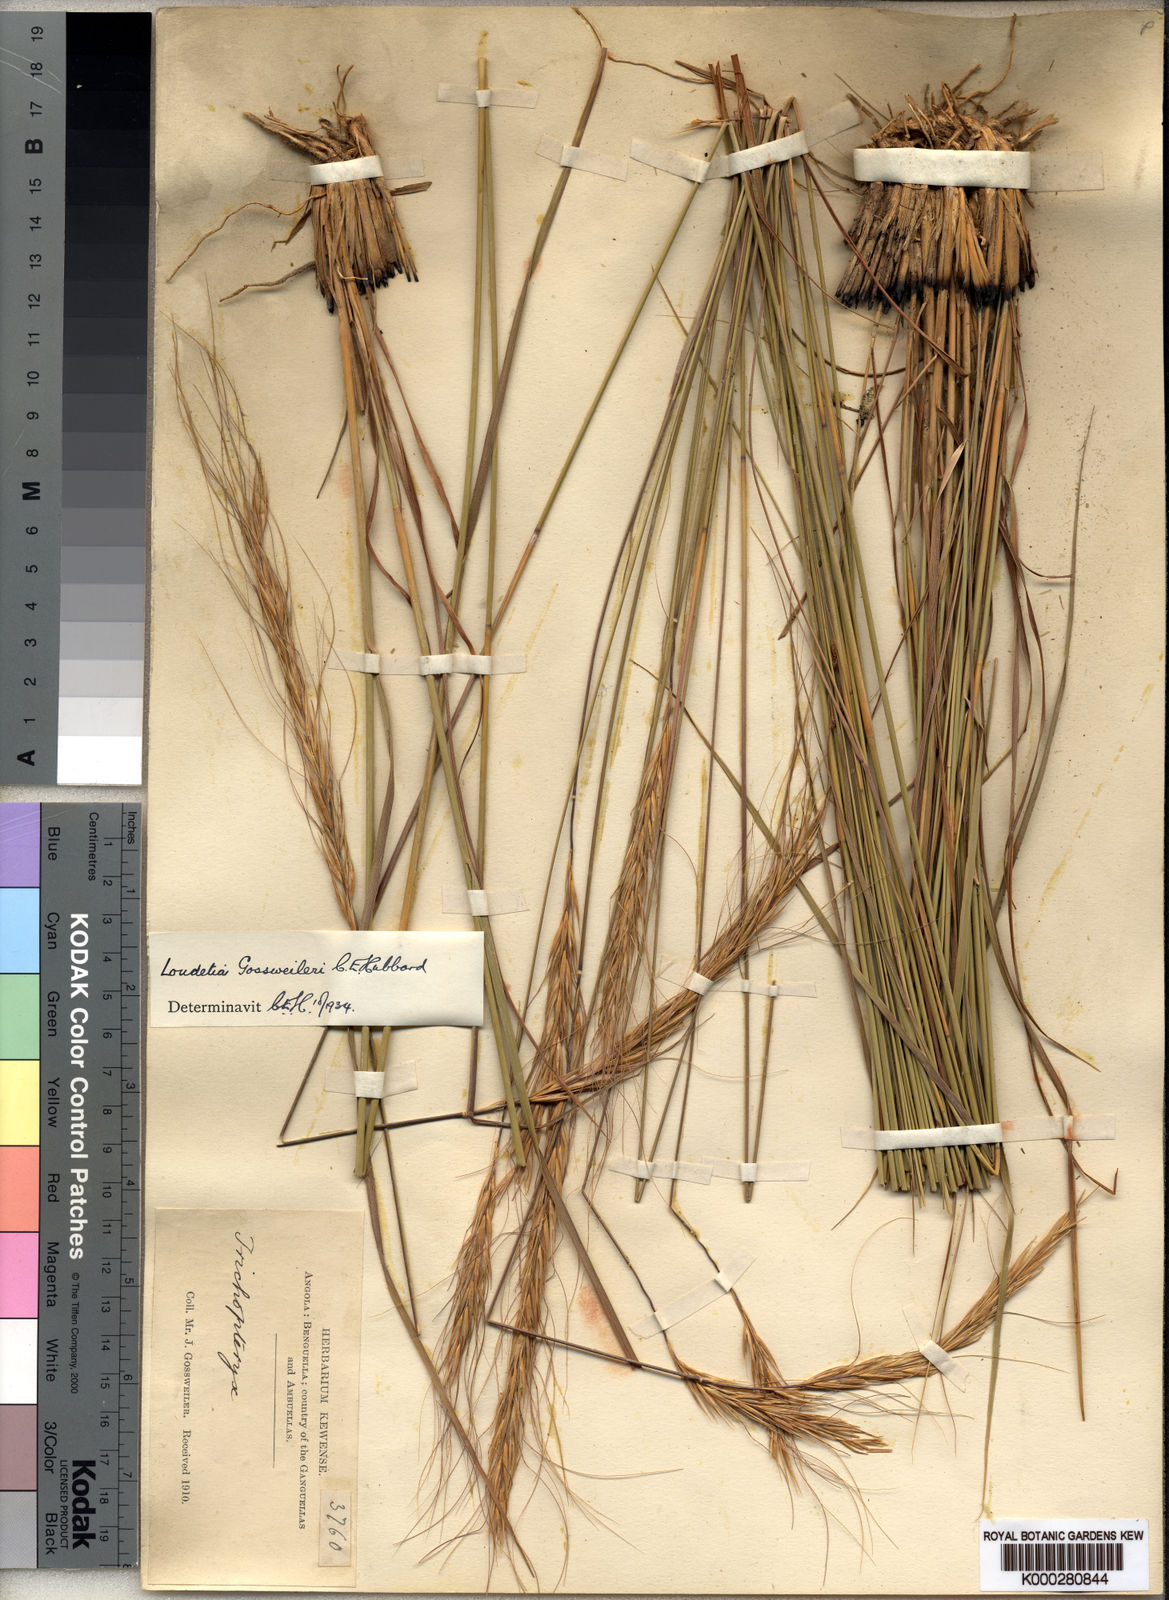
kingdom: Plantae
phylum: Tracheophyta
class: Liliopsida
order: Poales
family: Poaceae
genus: Loudetia
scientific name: Loudetia densispica
